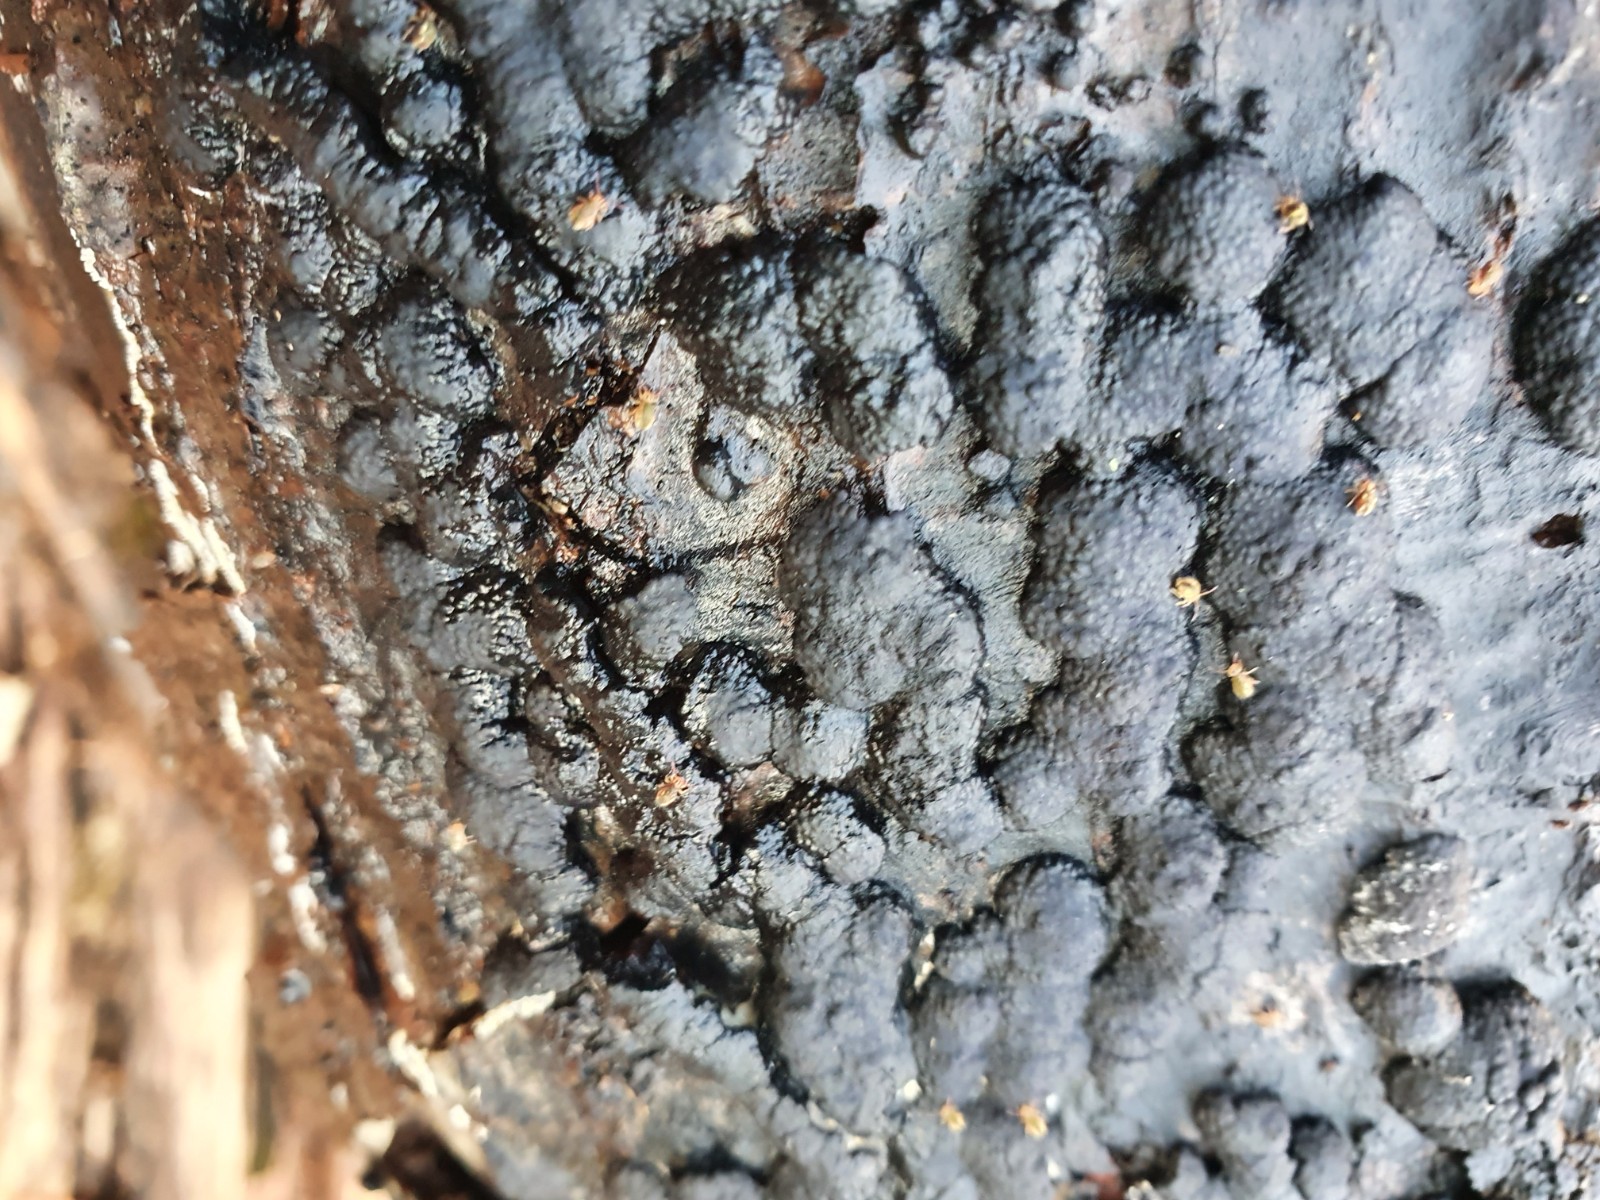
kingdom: Fungi
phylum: Ascomycota
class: Sordariomycetes
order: Xylariales
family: Hypoxylaceae
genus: Jackrogersella
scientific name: Jackrogersella cohaerens
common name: sammenflydende kulbær
